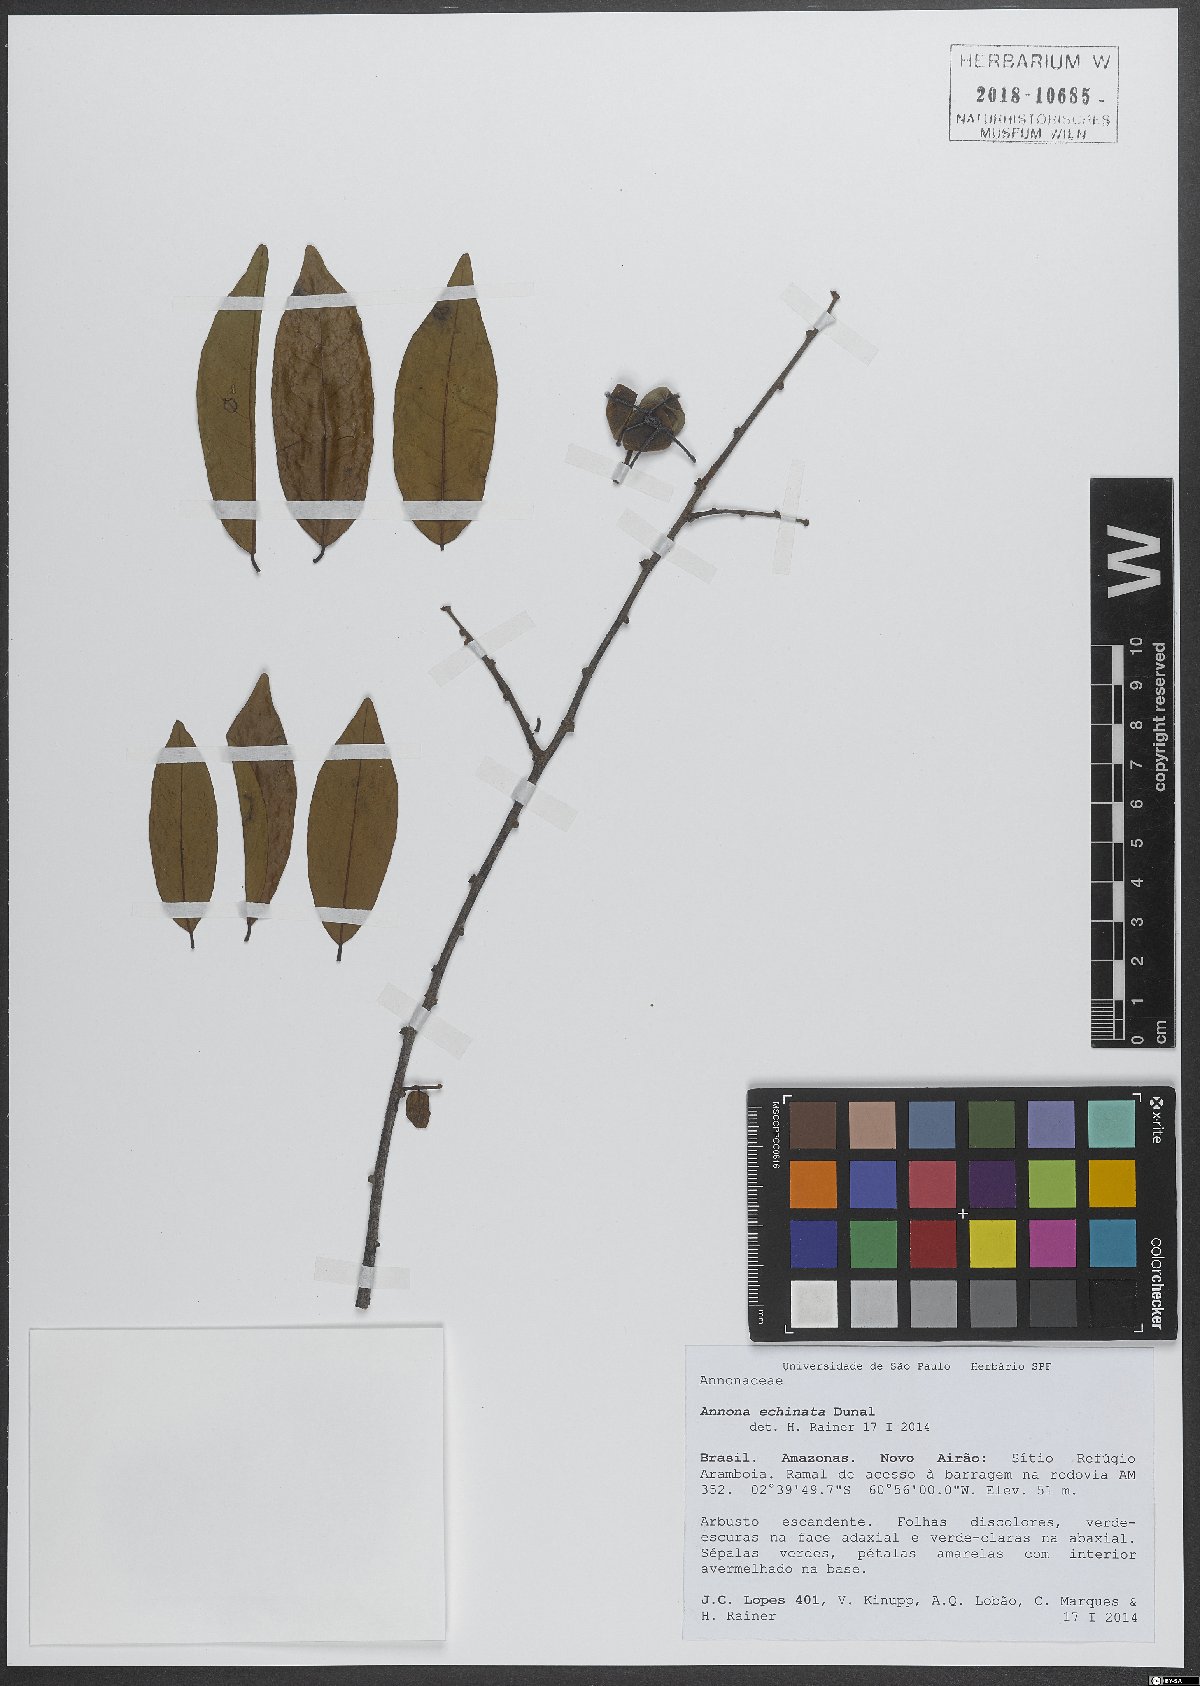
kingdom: Plantae
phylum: Tracheophyta
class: Magnoliopsida
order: Magnoliales
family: Annonaceae
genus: Annona
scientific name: Annona echinata
